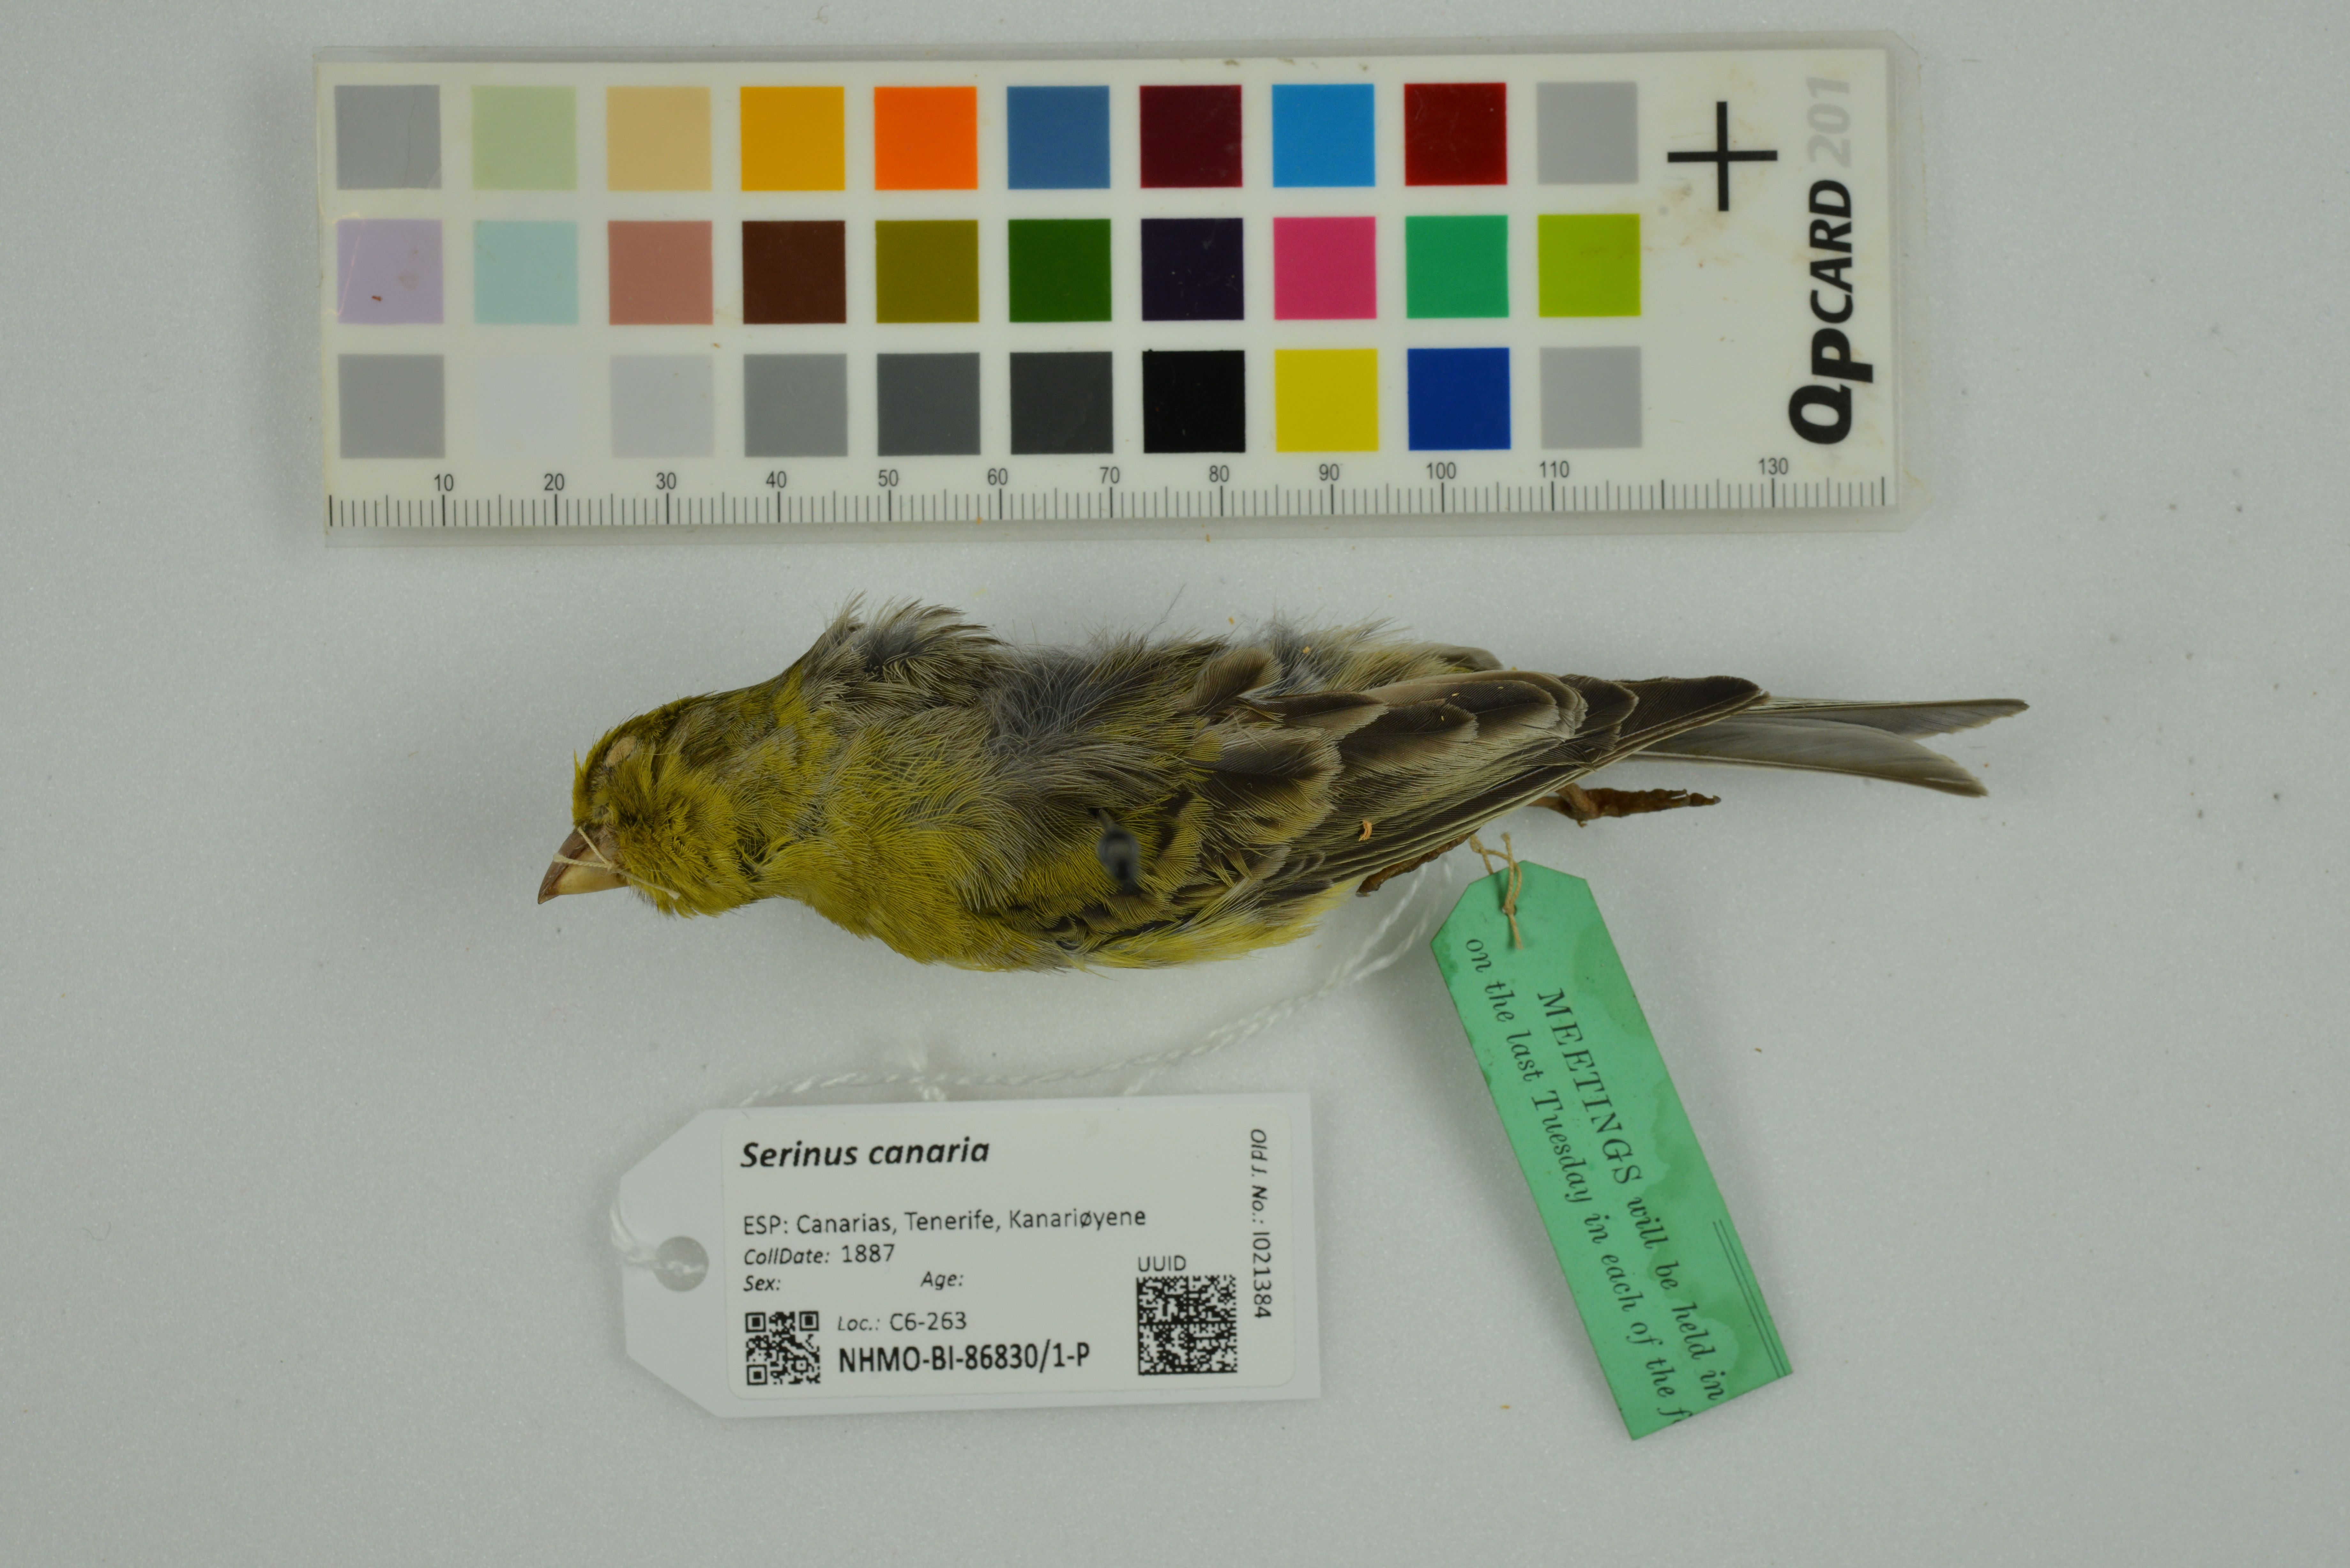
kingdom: Animalia
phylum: Chordata
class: Aves
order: Passeriformes
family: Fringillidae
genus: Serinus
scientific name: Serinus canaria
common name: Atlantic canary
